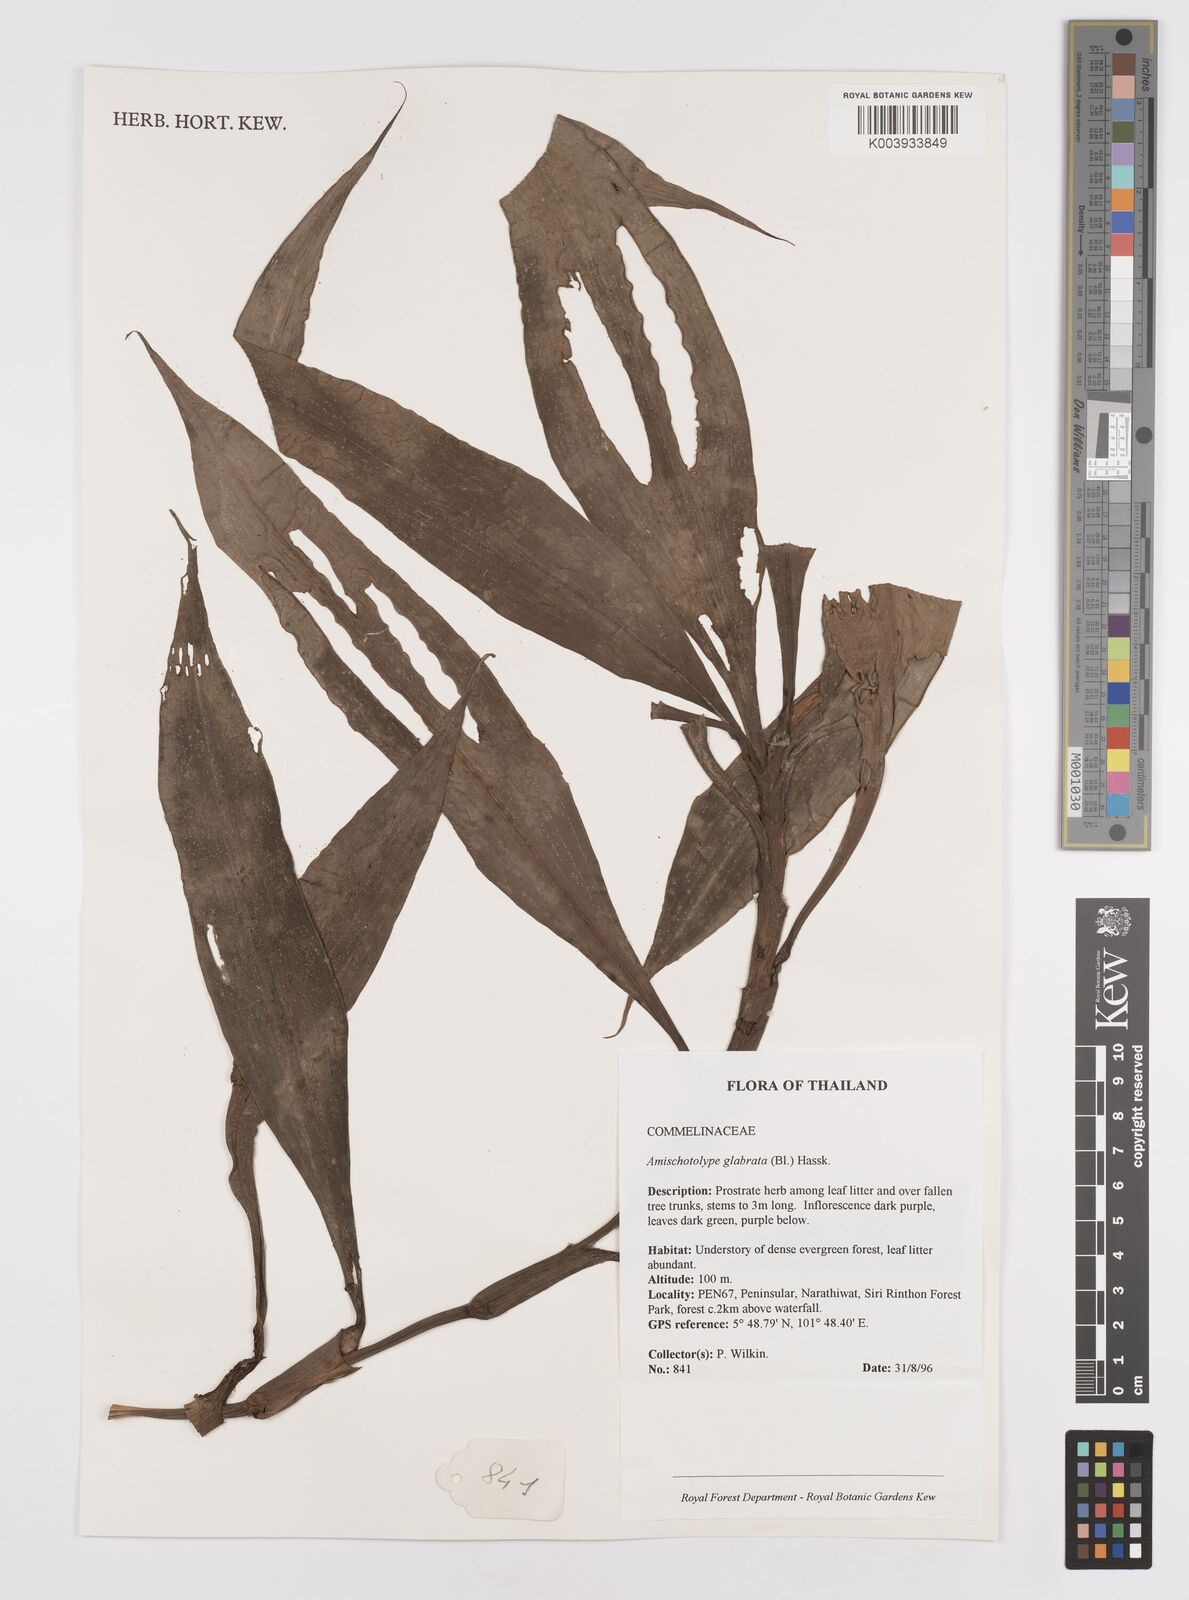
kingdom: Plantae
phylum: Tracheophyta
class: Liliopsida
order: Commelinales
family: Commelinaceae
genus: Amischotolype
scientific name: Amischotolype glabrata
